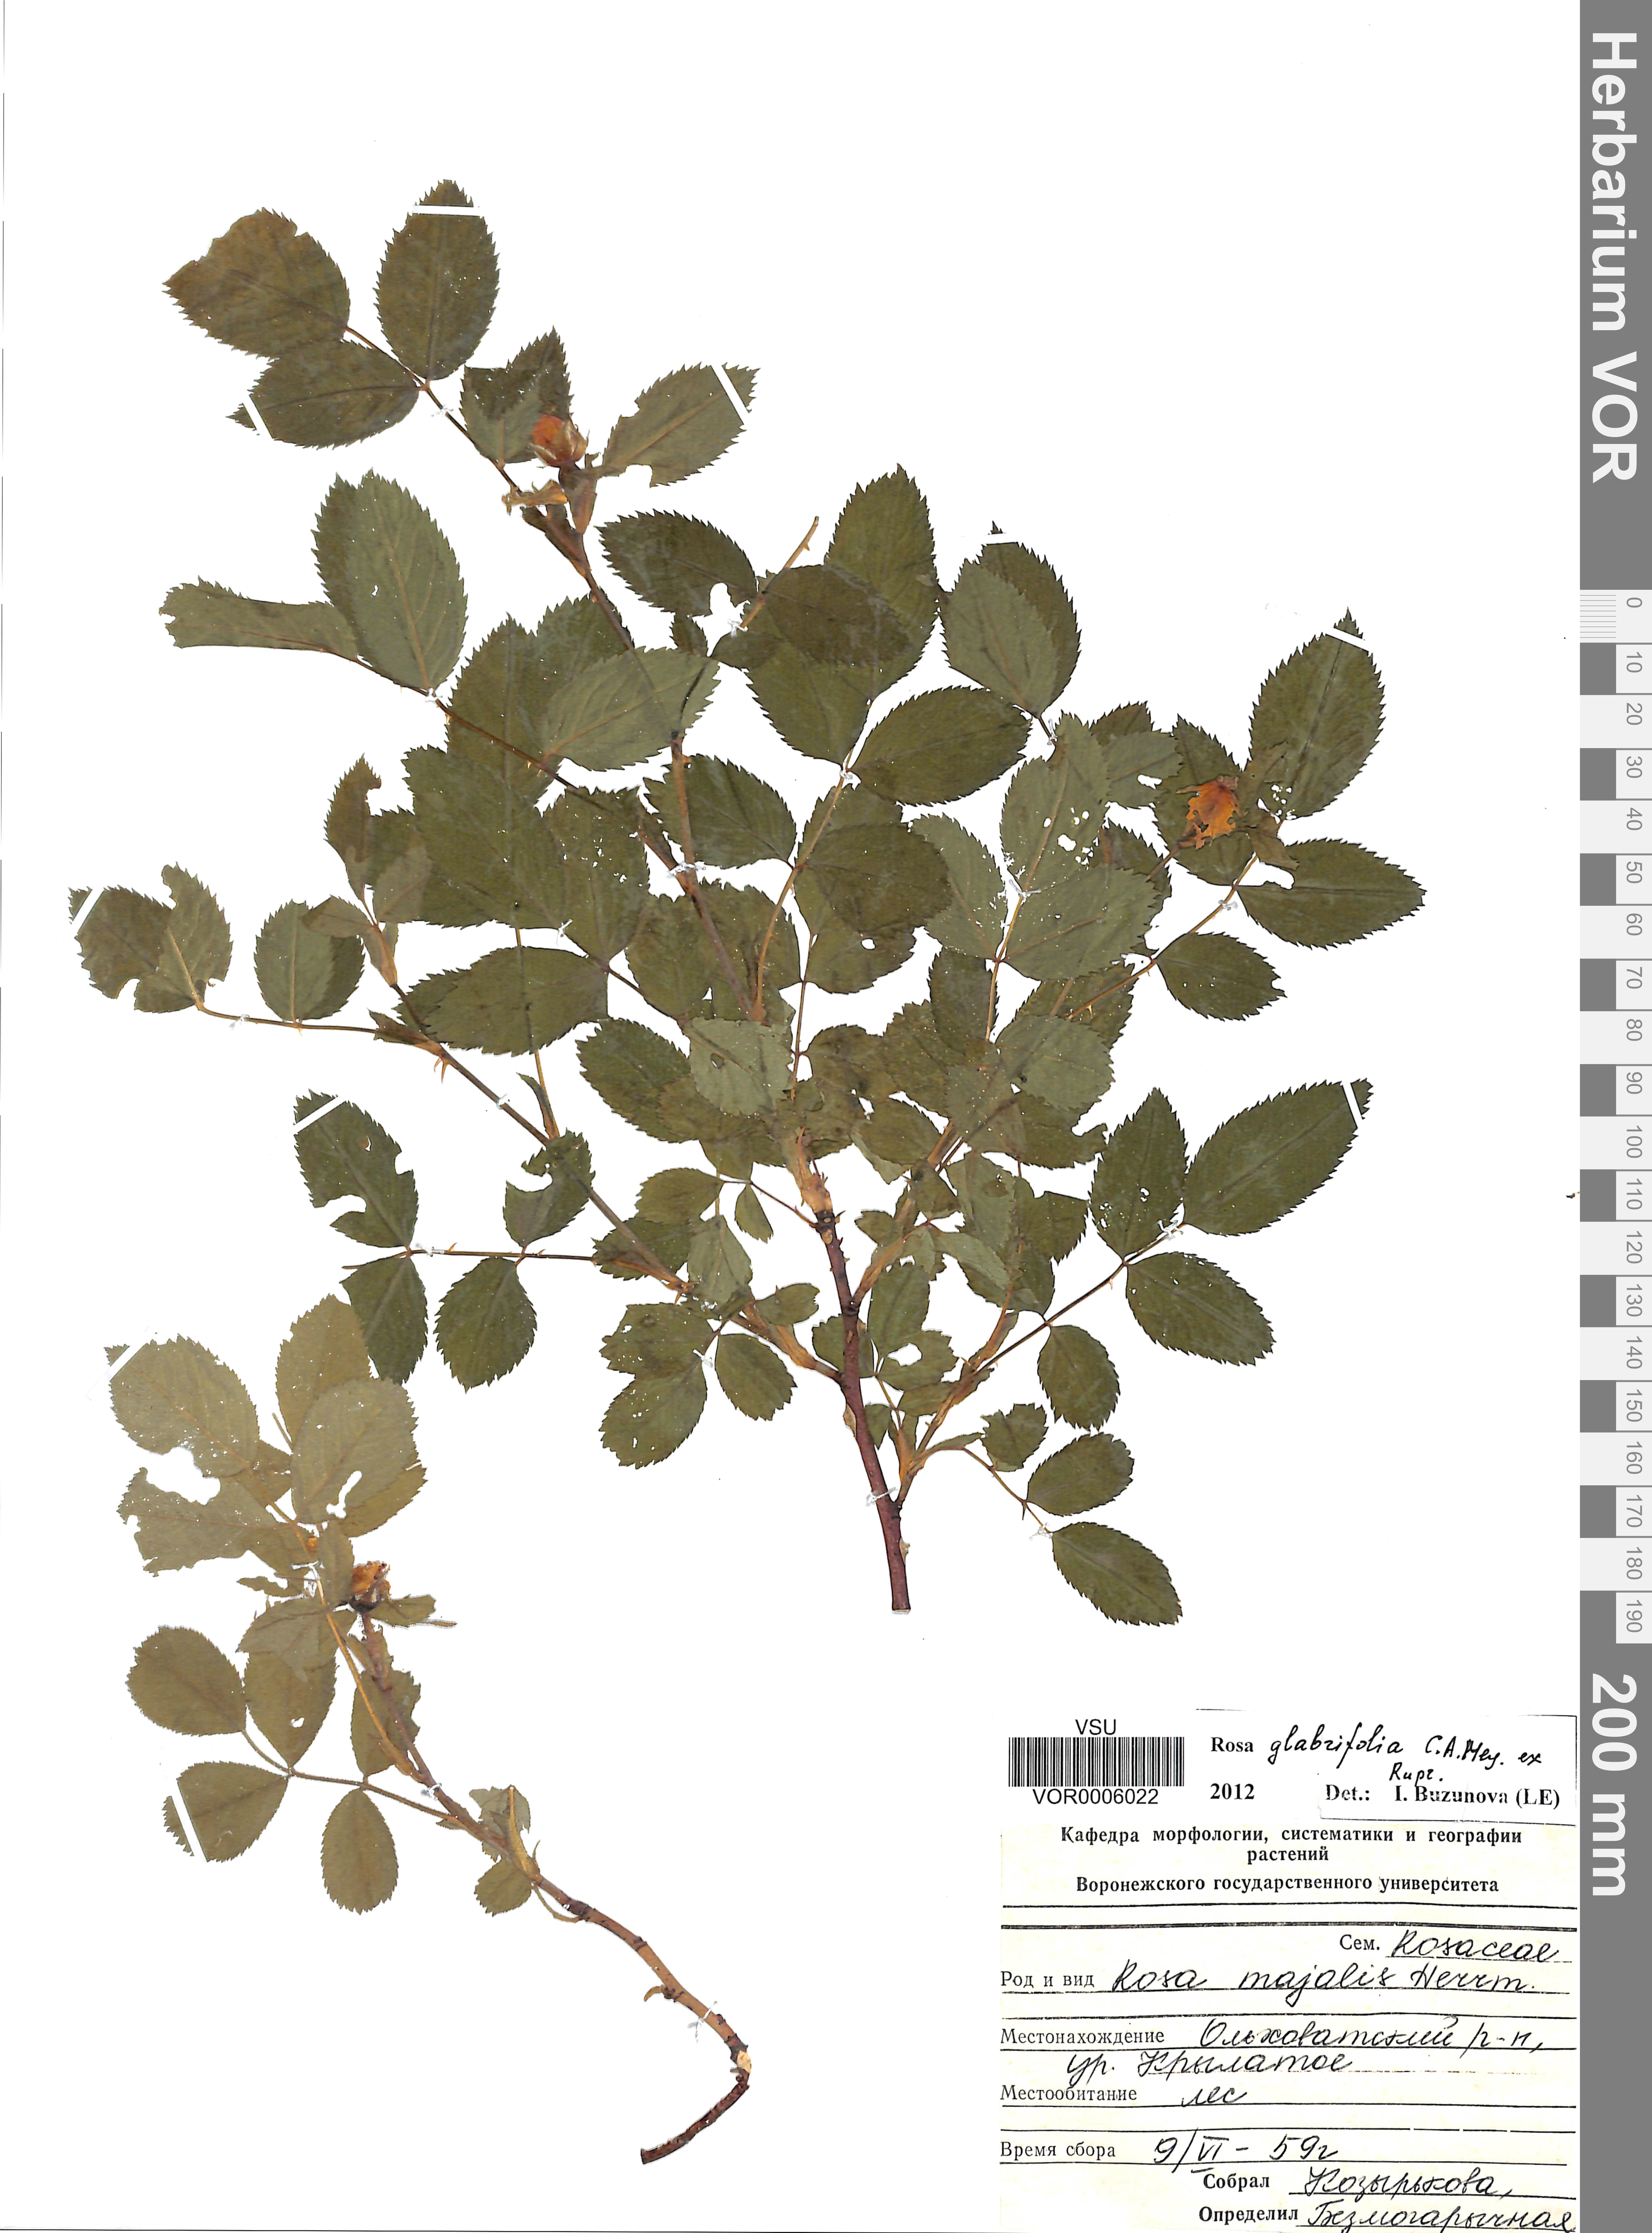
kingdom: Plantae
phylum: Tracheophyta
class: Magnoliopsida
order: Rosales
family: Rosaceae
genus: Rosa
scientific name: Rosa glabrifolia
